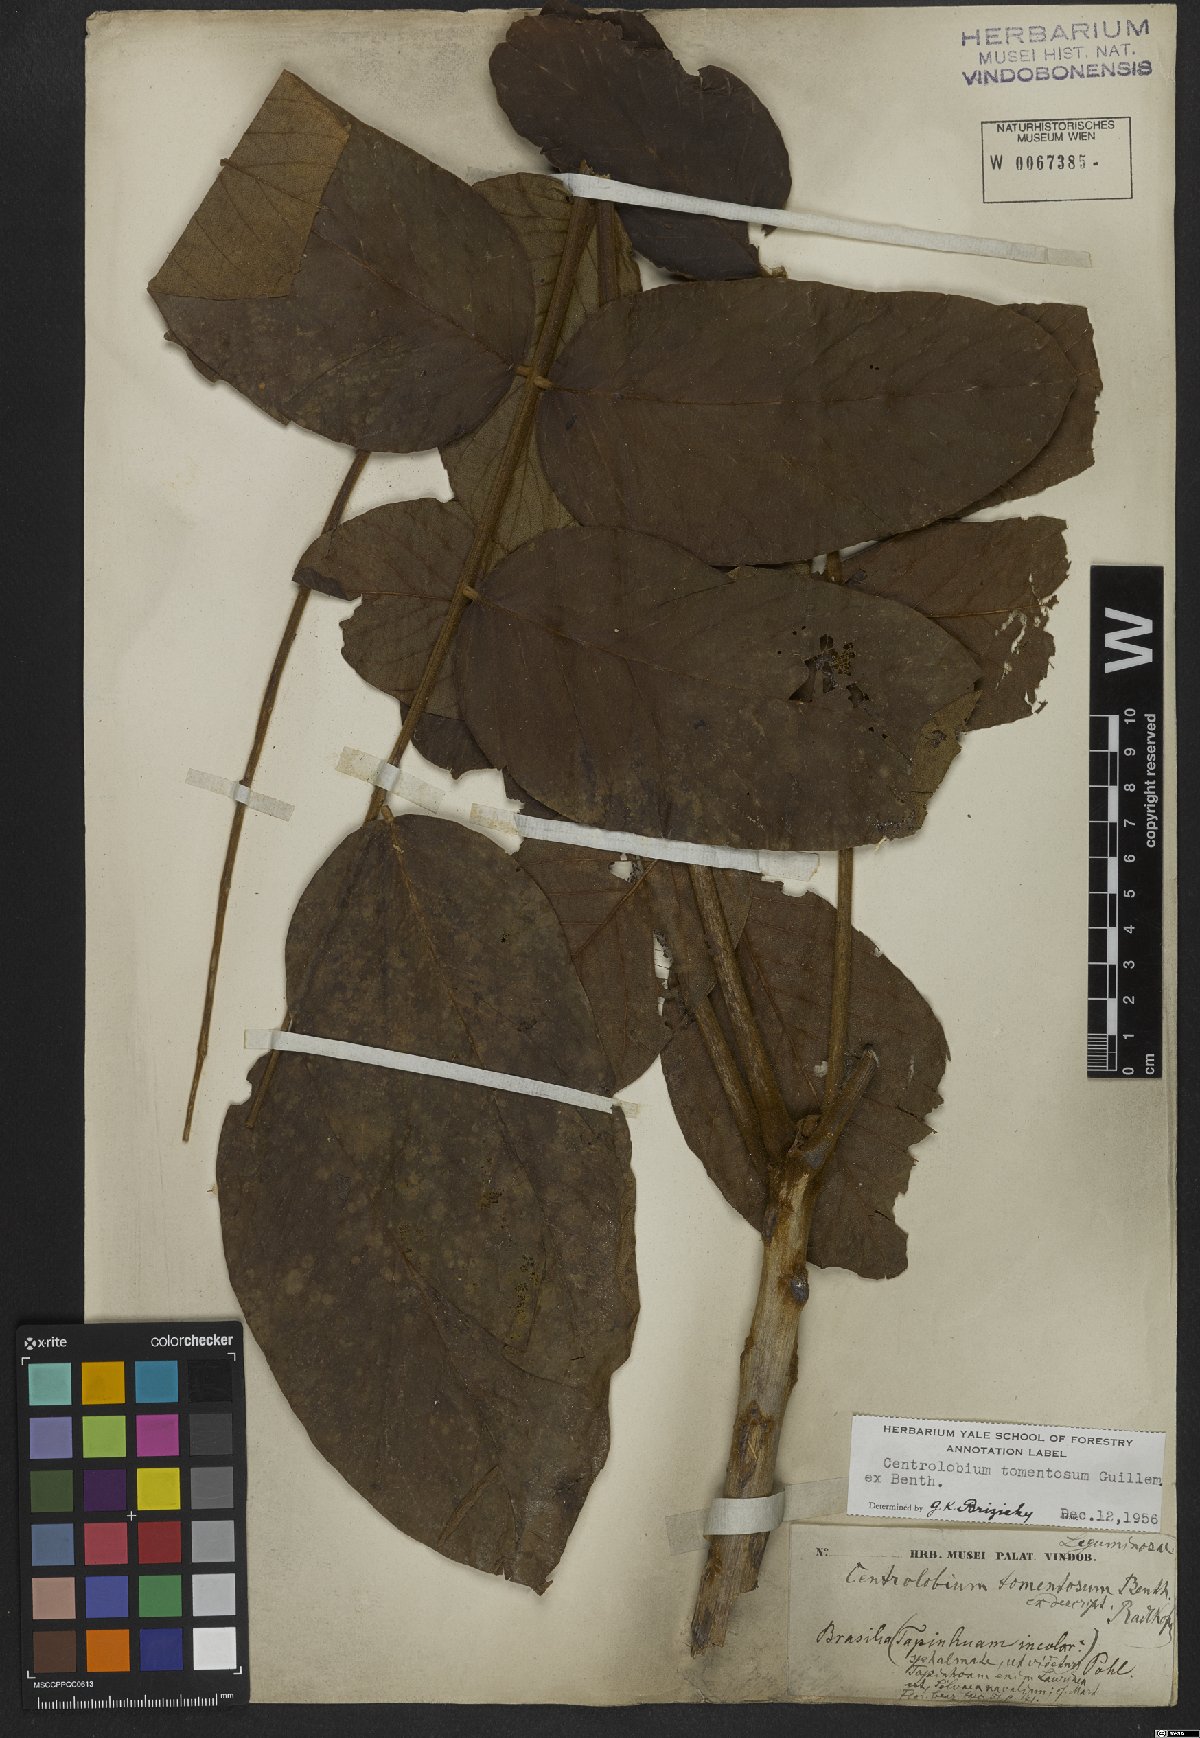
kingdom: Plantae
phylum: Tracheophyta
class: Magnoliopsida
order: Fabales
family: Fabaceae
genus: Centrolobium
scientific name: Centrolobium tomentosum
